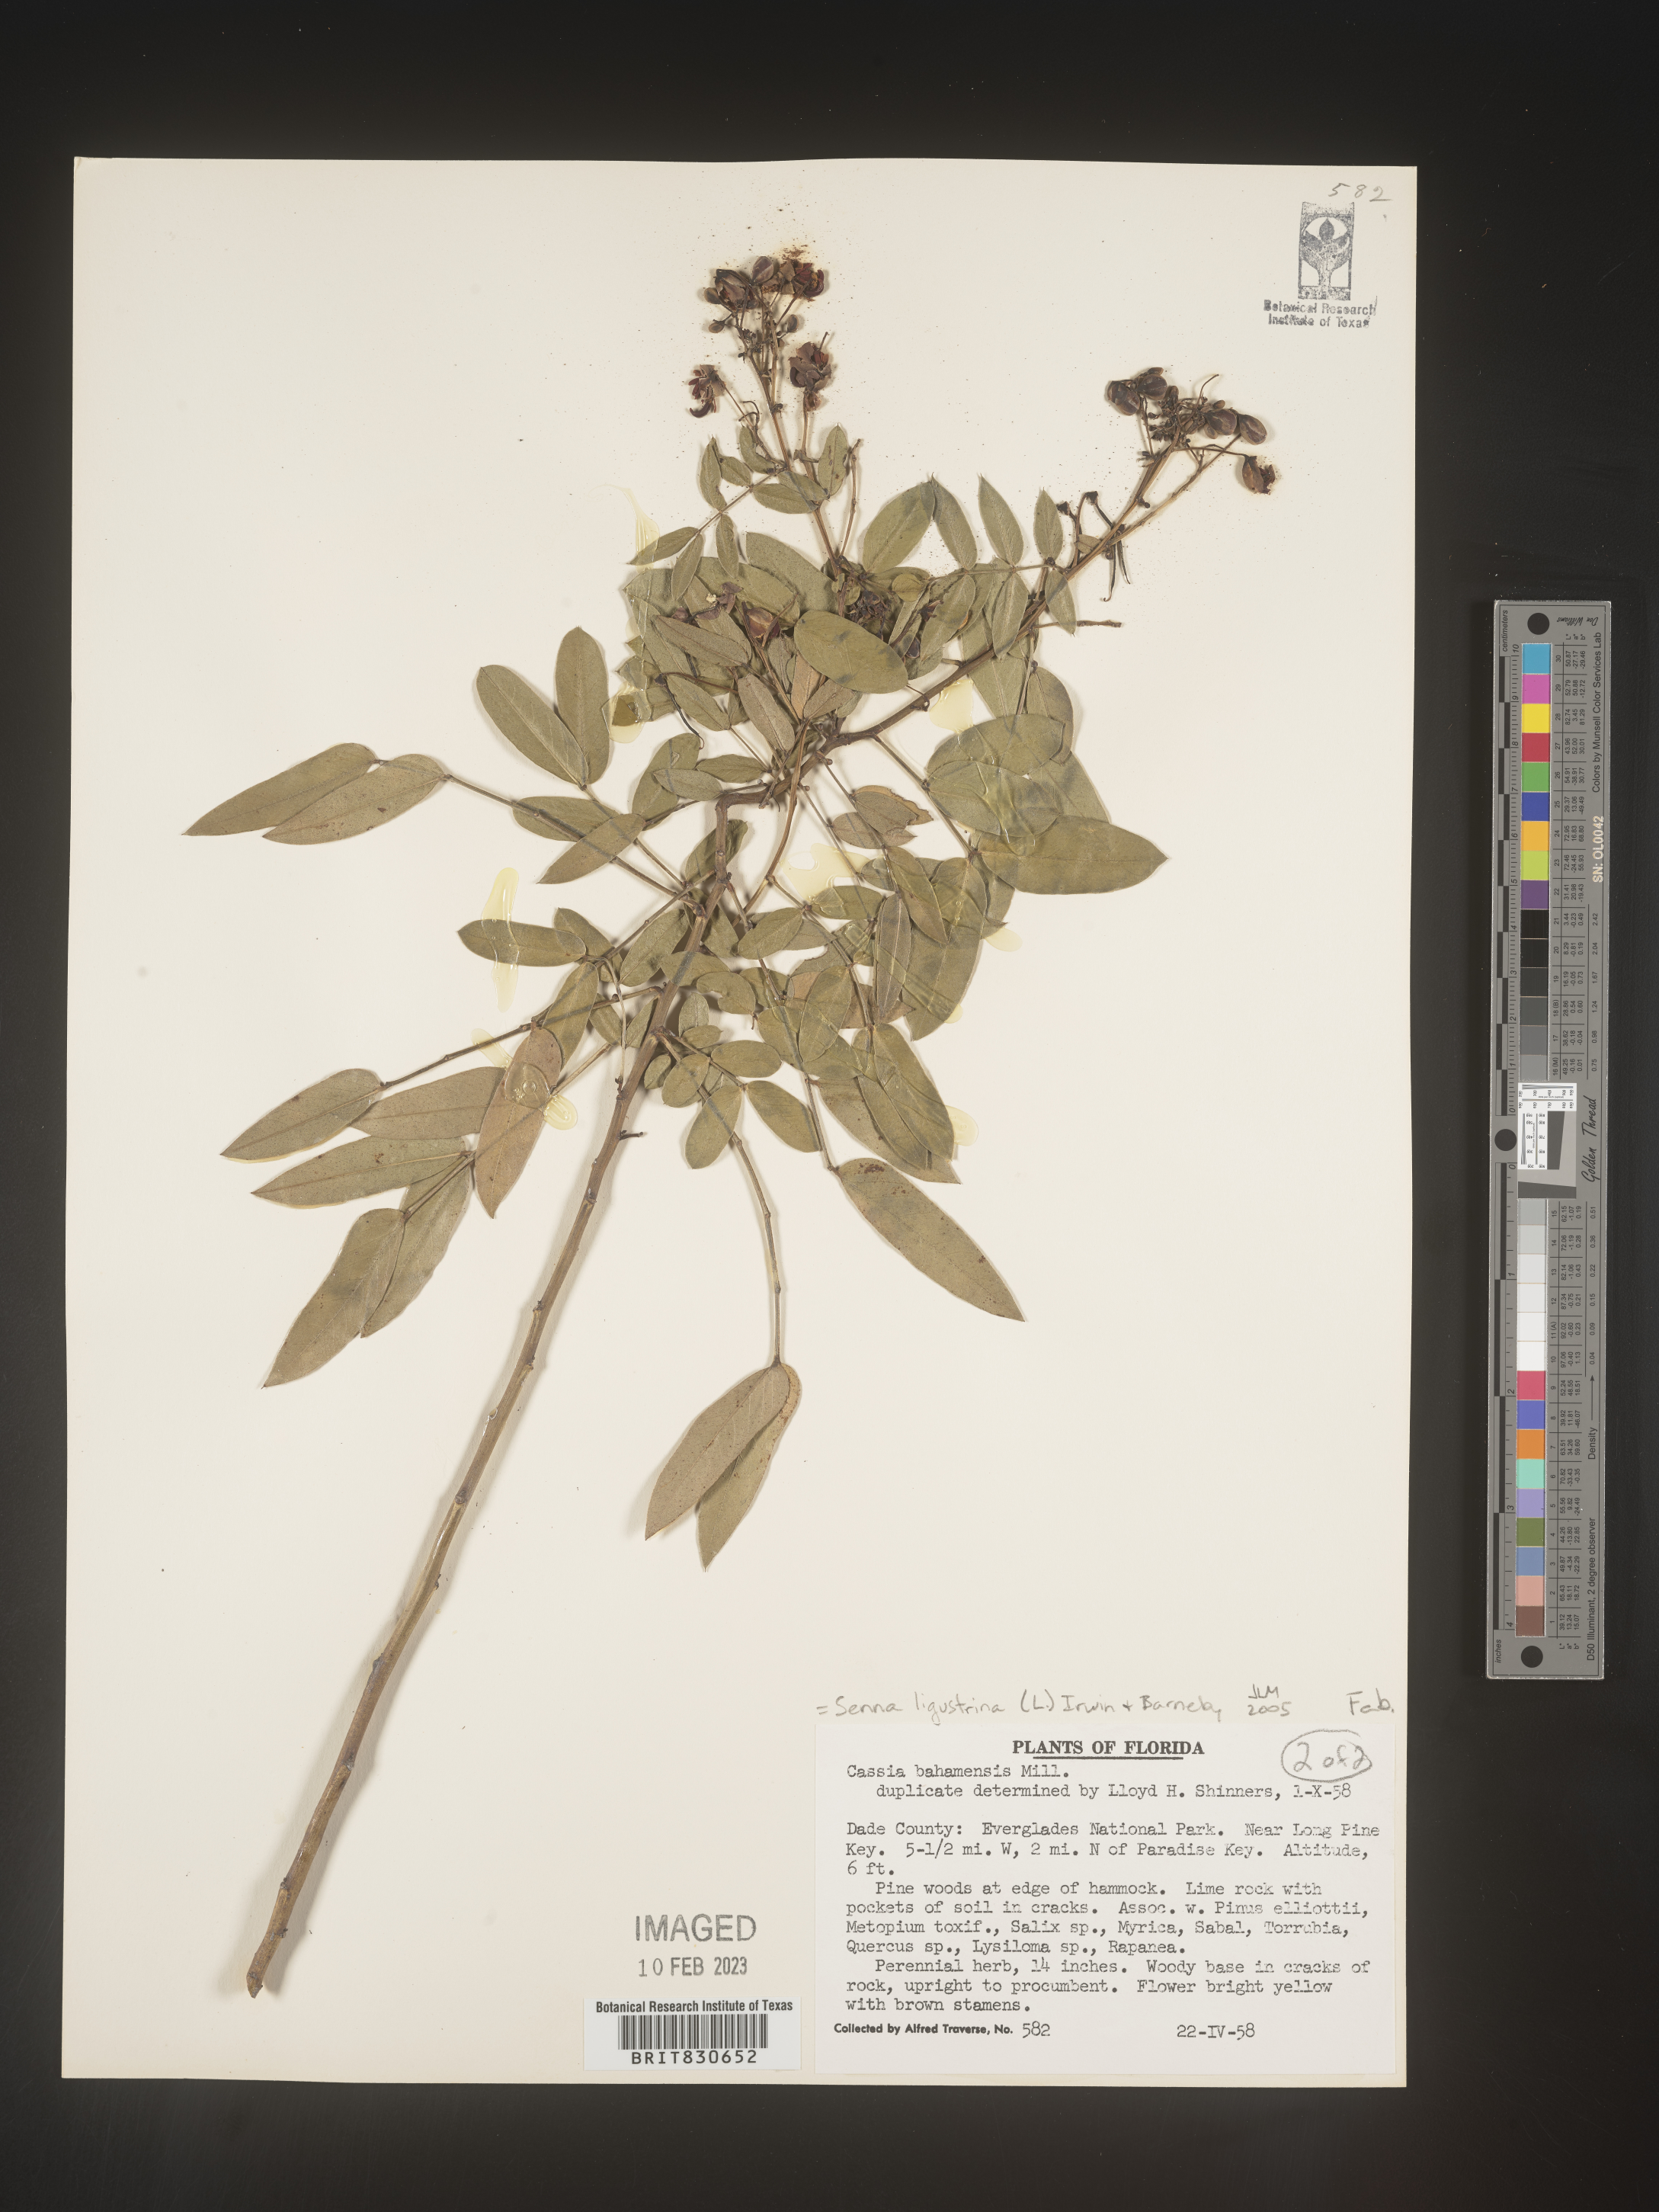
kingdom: Plantae
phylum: Tracheophyta
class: Magnoliopsida
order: Fabales
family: Fabaceae
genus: Senna
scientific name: Senna
